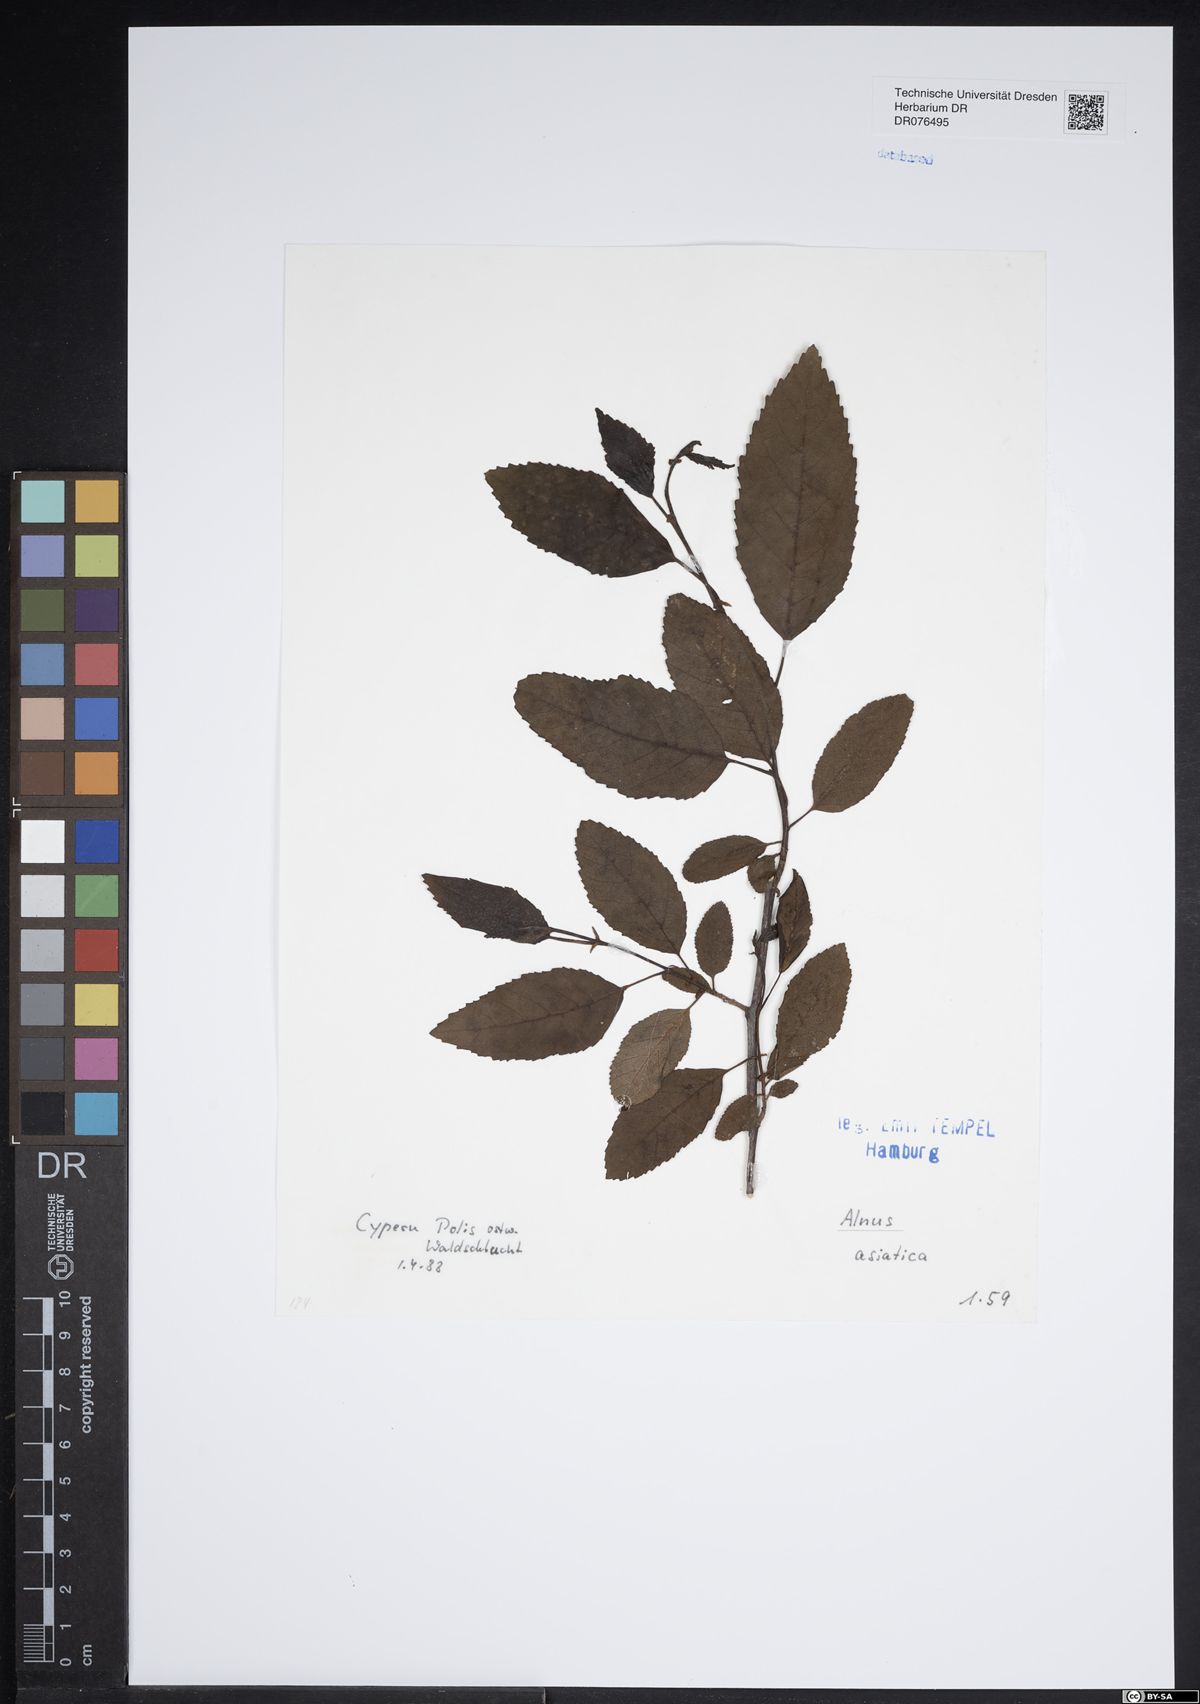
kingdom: Plantae
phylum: Tracheophyta
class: Magnoliopsida
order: Fagales
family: Betulaceae
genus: Alnus
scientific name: Alnus
